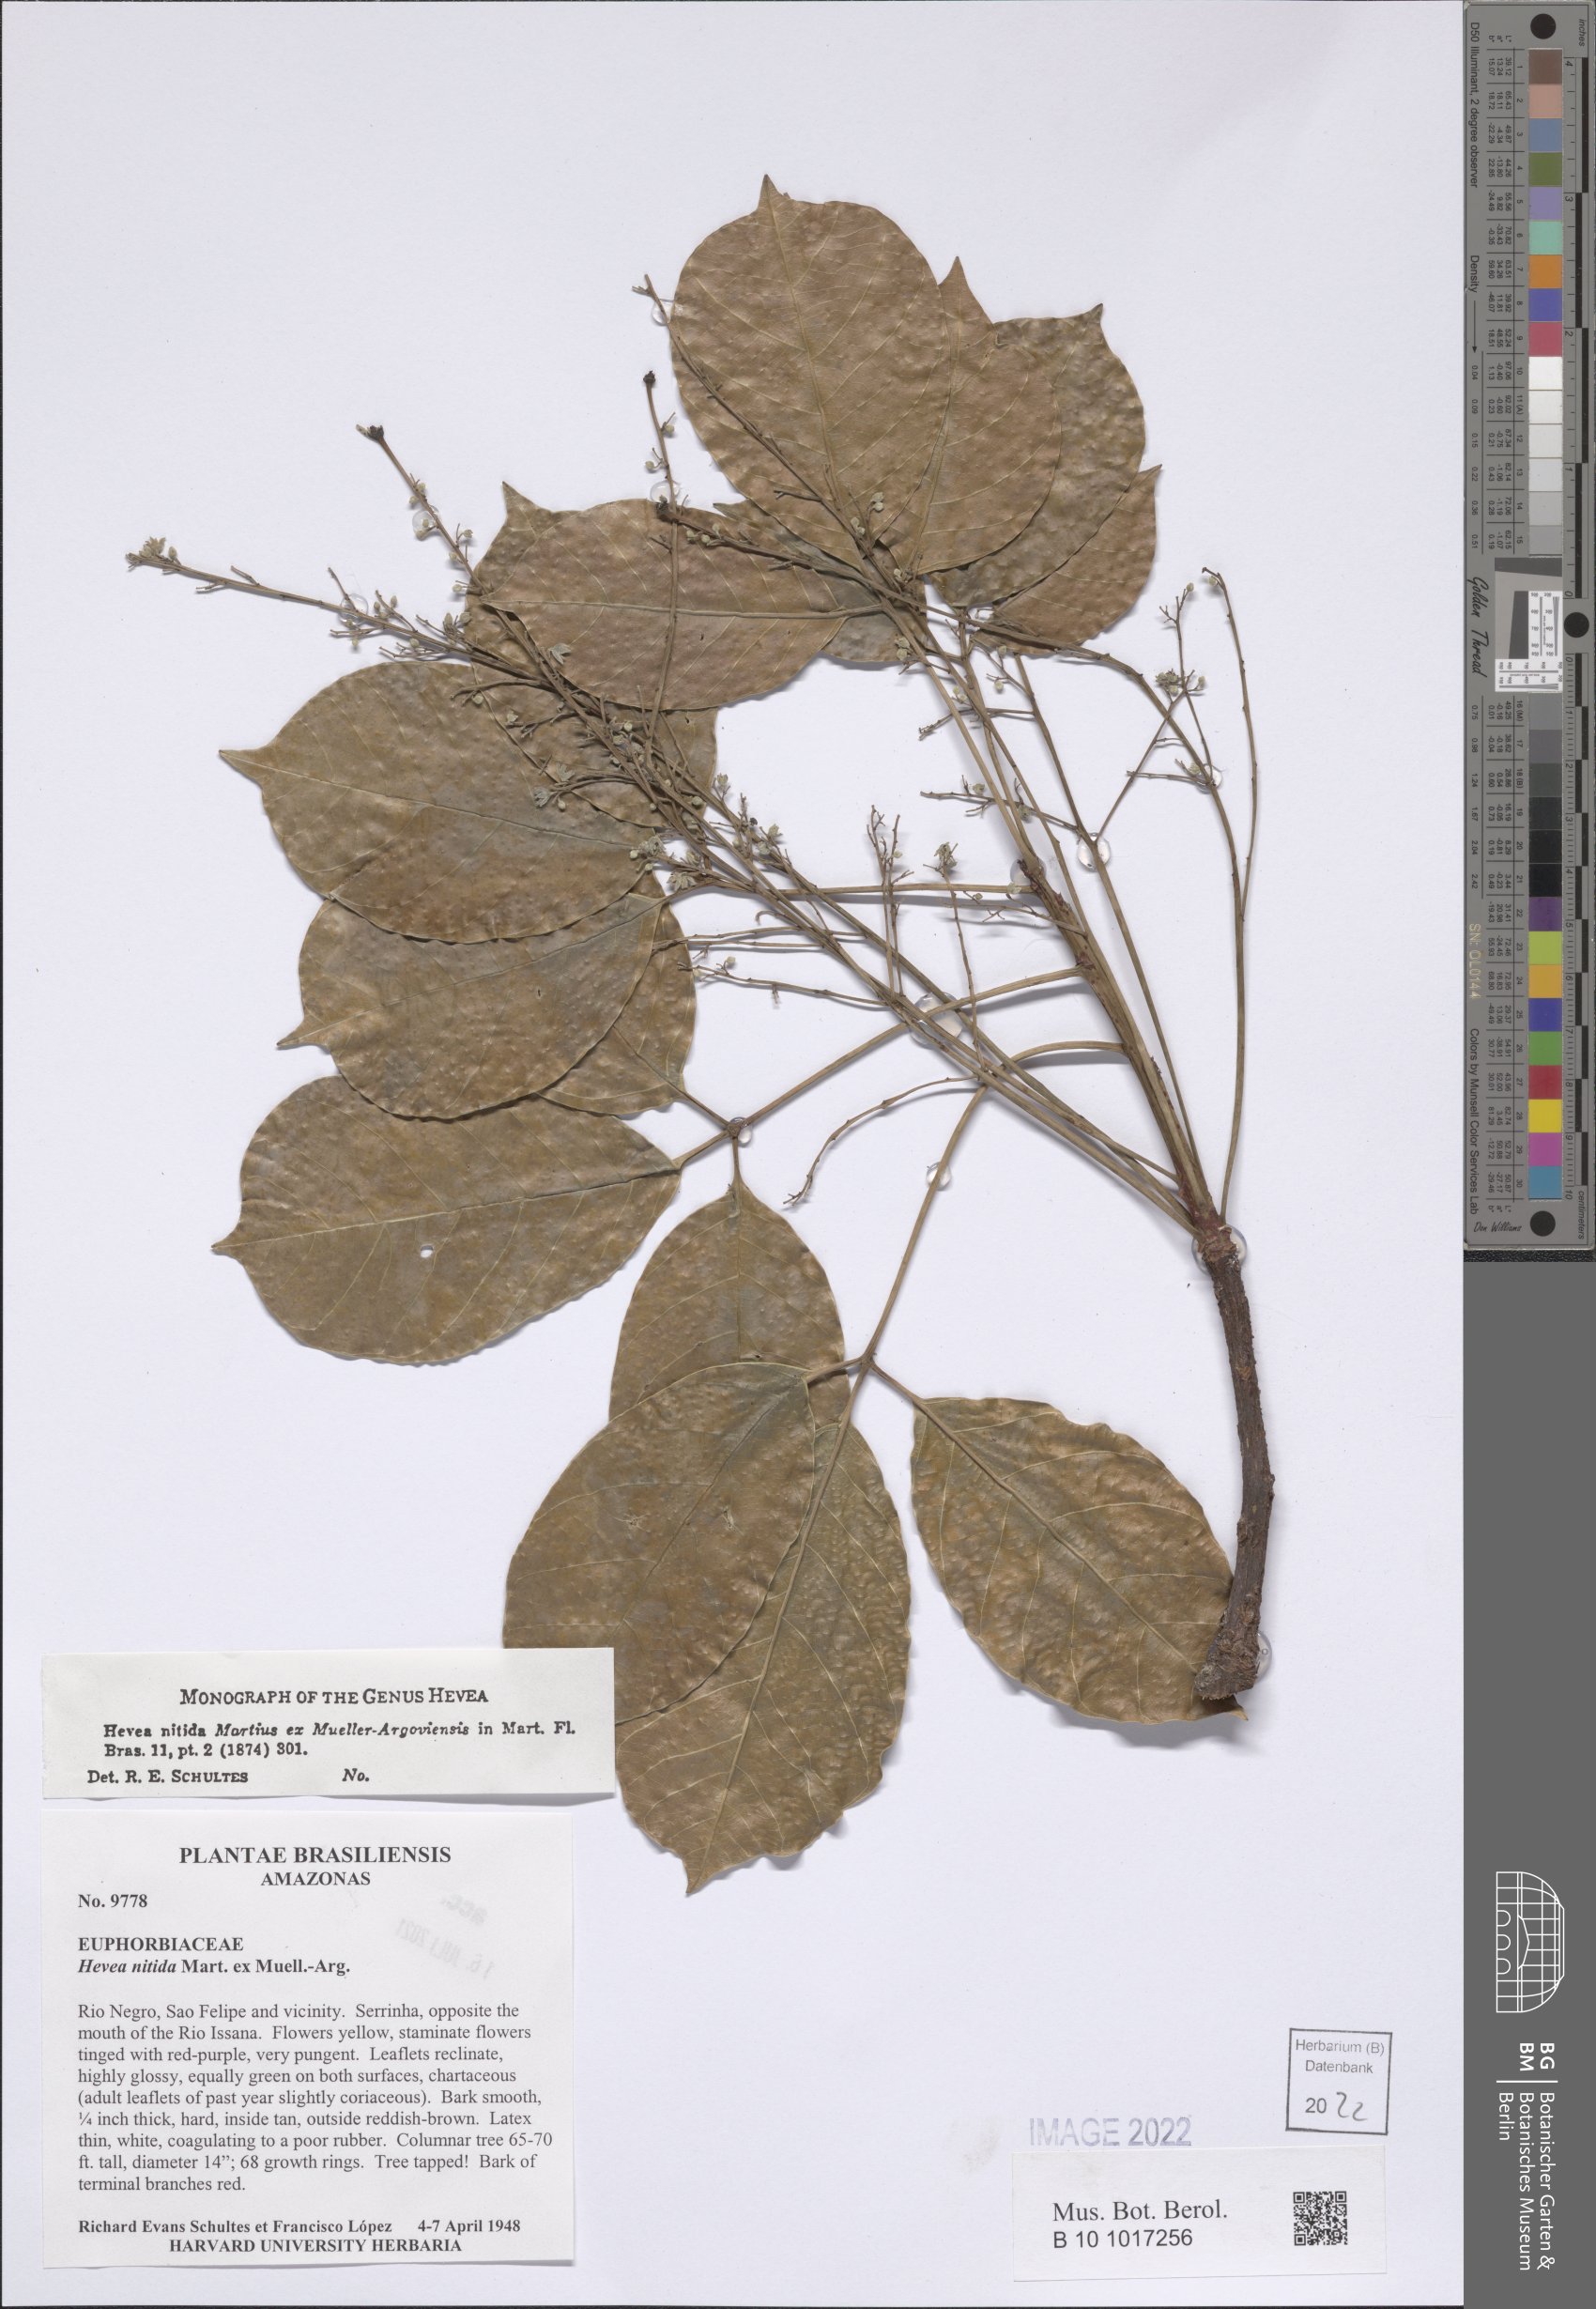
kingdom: Plantae
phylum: Tracheophyta
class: Magnoliopsida
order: Malpighiales
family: Euphorbiaceae
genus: Hevea
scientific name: Hevea nitida
